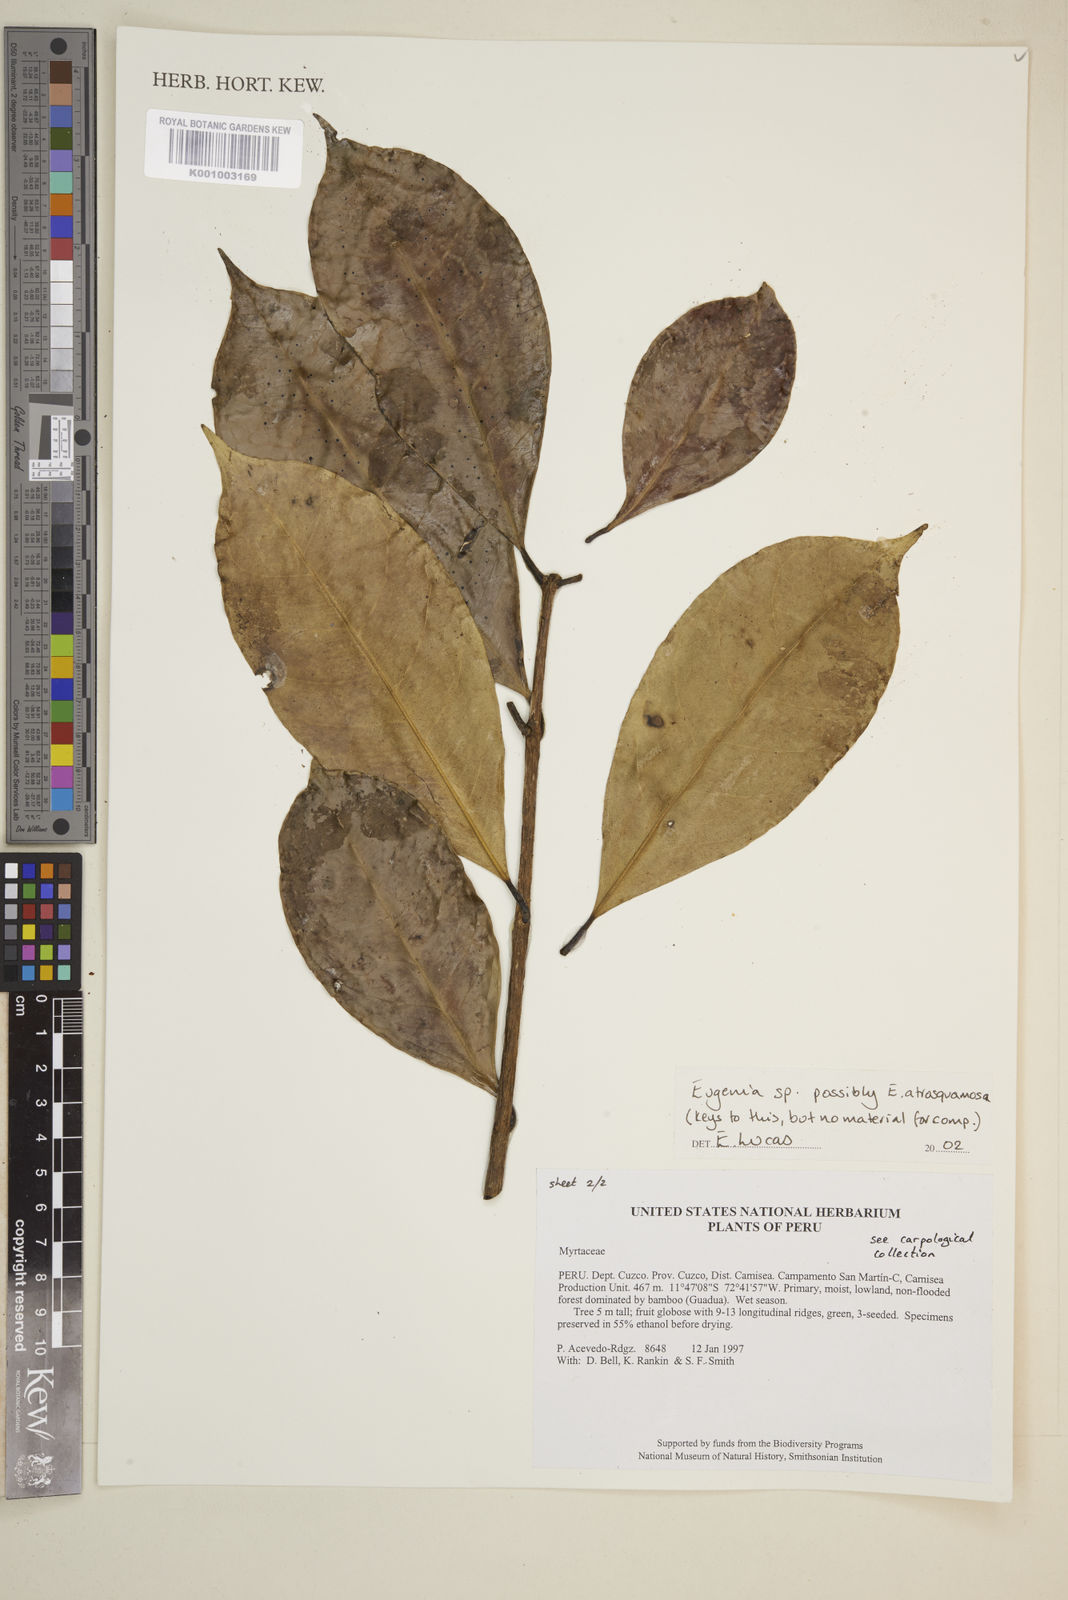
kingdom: Plantae
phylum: Tracheophyta
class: Magnoliopsida
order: Myrtales
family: Myrtaceae
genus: Eugenia
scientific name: Eugenia
